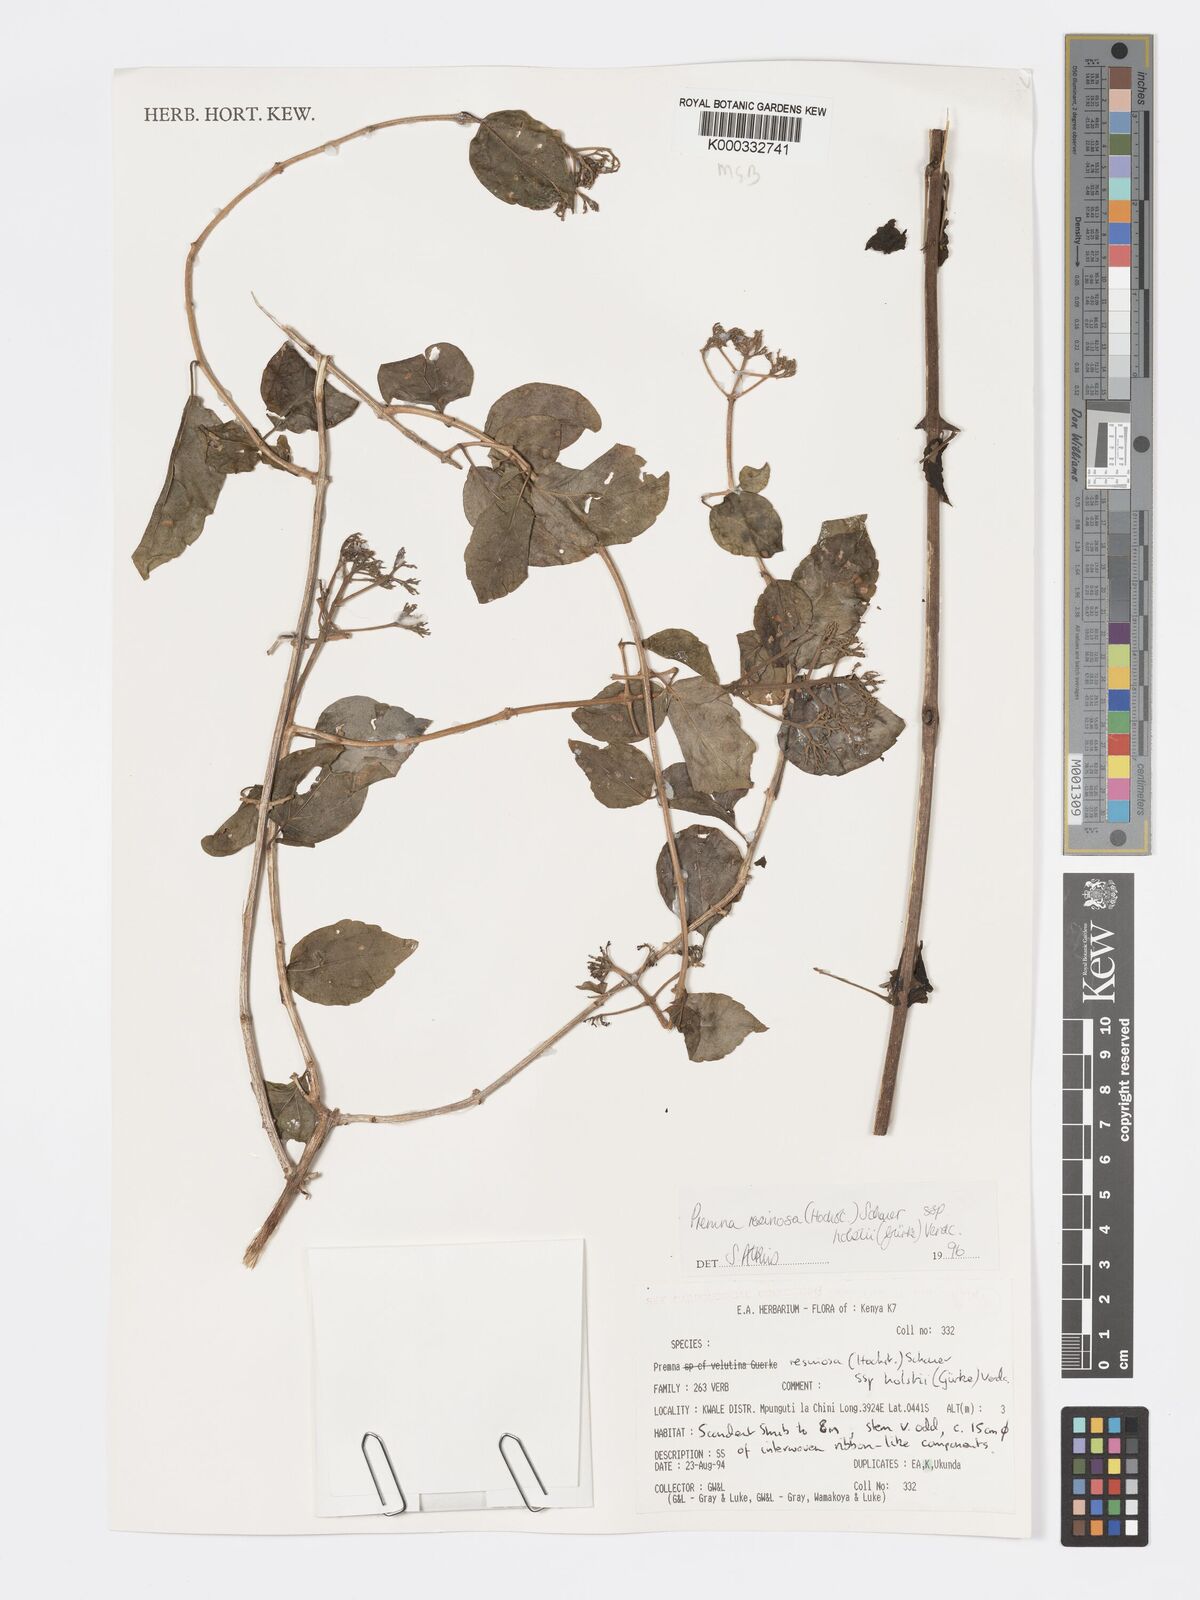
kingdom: Plantae
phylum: Tracheophyta
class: Magnoliopsida
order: Lamiales
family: Lamiaceae
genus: Premna
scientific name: Premna resinosa
